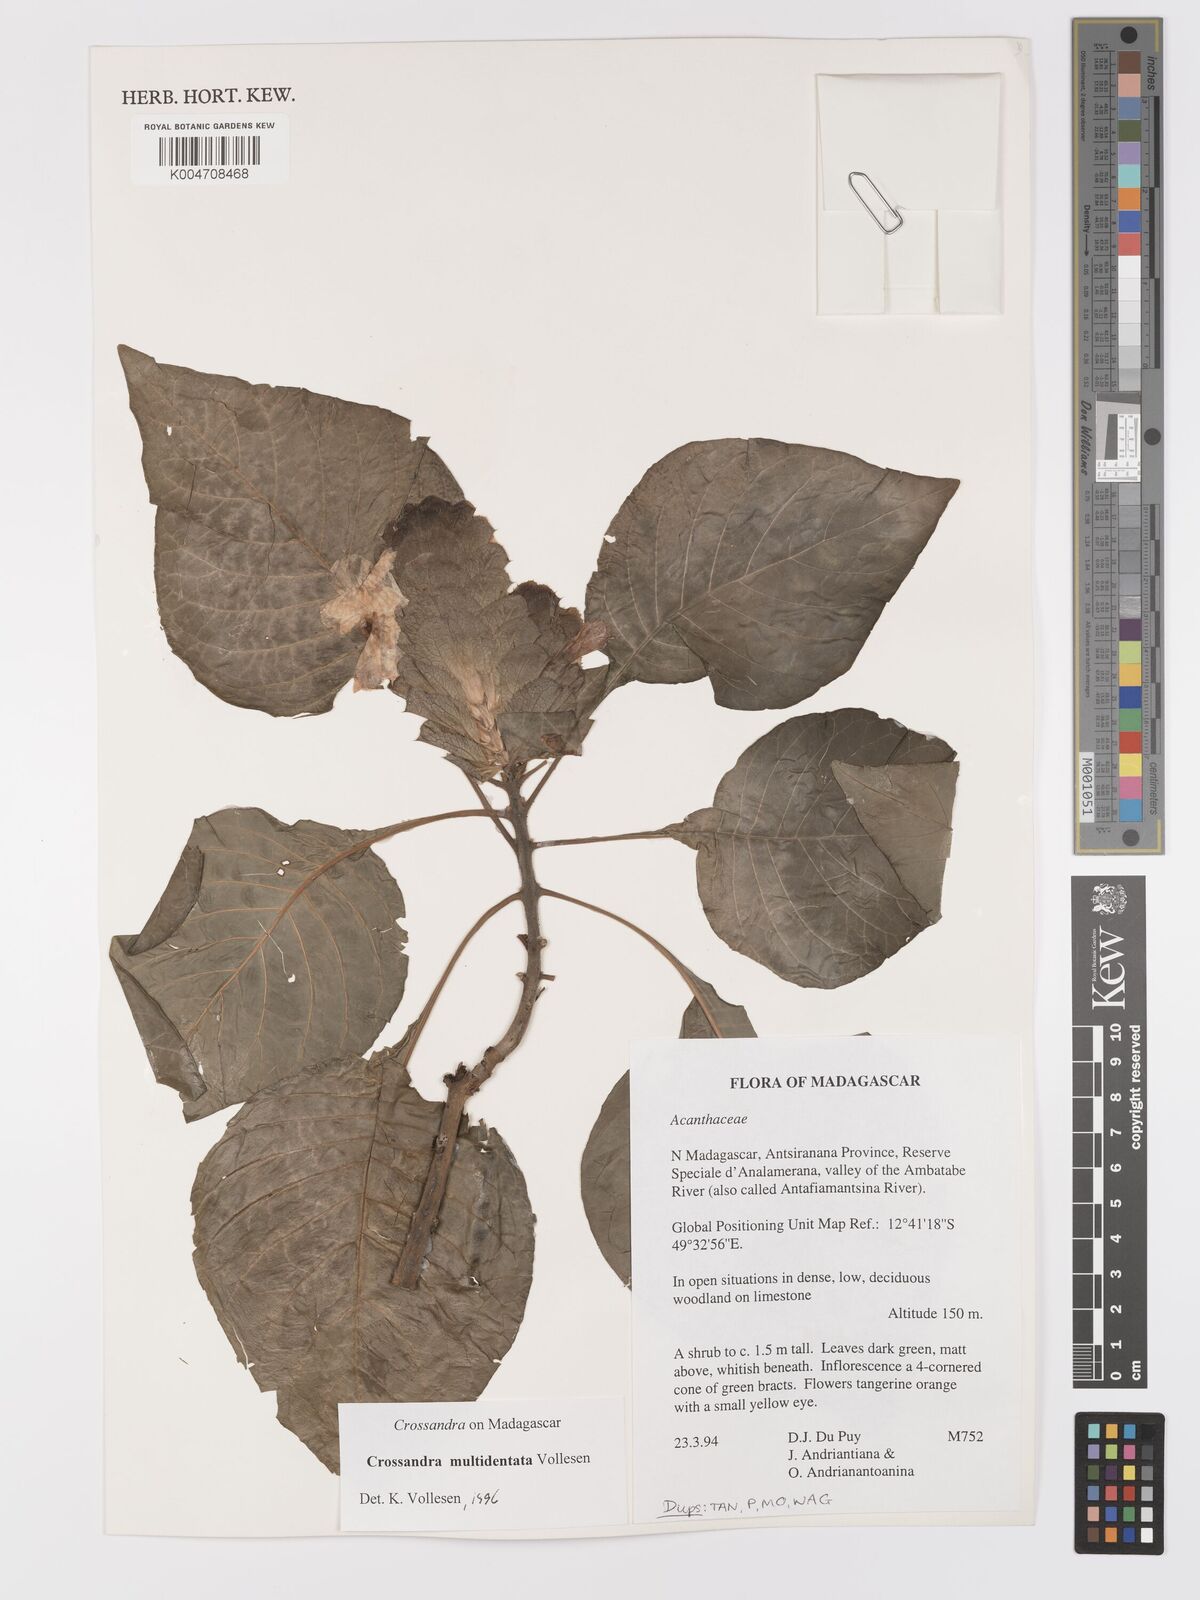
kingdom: Plantae
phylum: Tracheophyta
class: Magnoliopsida
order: Lamiales
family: Acanthaceae
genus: Crossandra
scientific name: Crossandra multidentata
